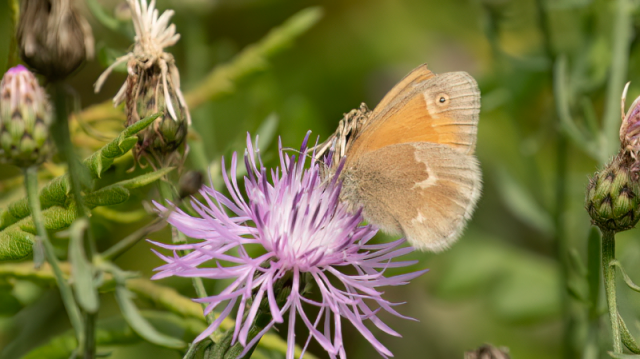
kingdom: Animalia
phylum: Arthropoda
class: Insecta
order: Lepidoptera
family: Nymphalidae
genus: Coenonympha
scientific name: Coenonympha tullia
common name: Large Heath
